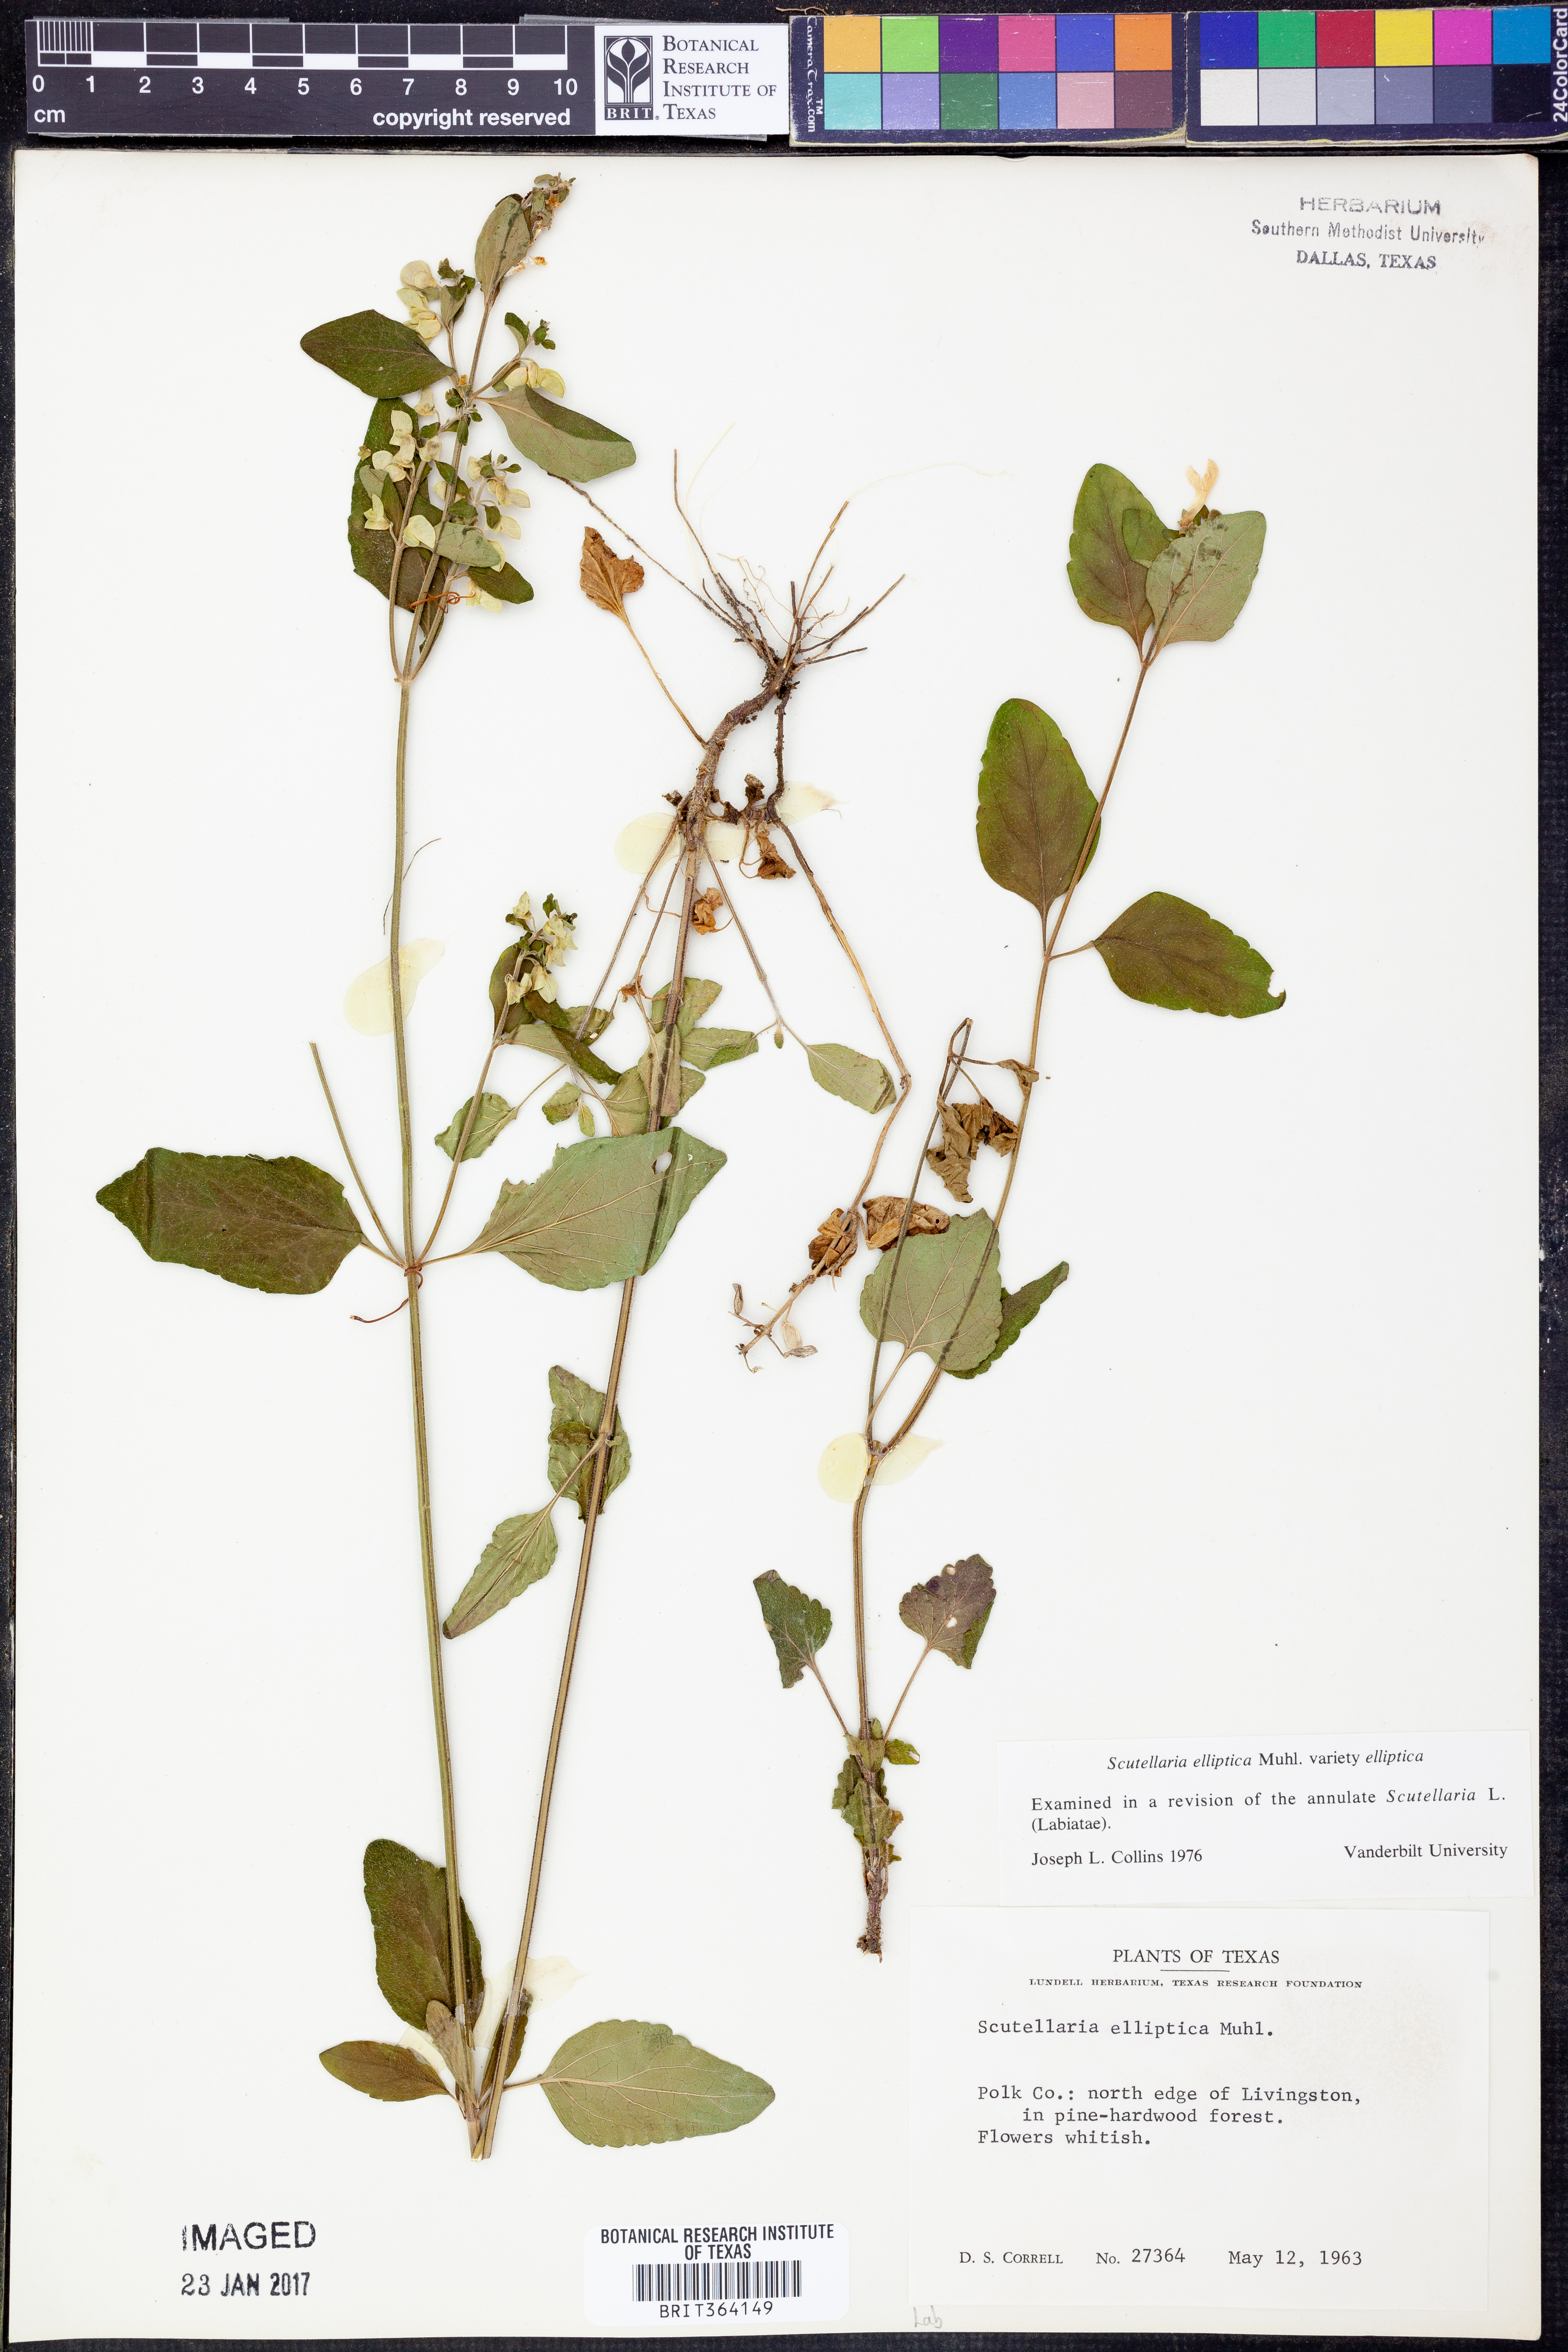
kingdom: Plantae
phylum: Tracheophyta
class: Magnoliopsida
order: Lamiales
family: Lamiaceae
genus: Scutellaria
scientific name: Scutellaria elliptica
